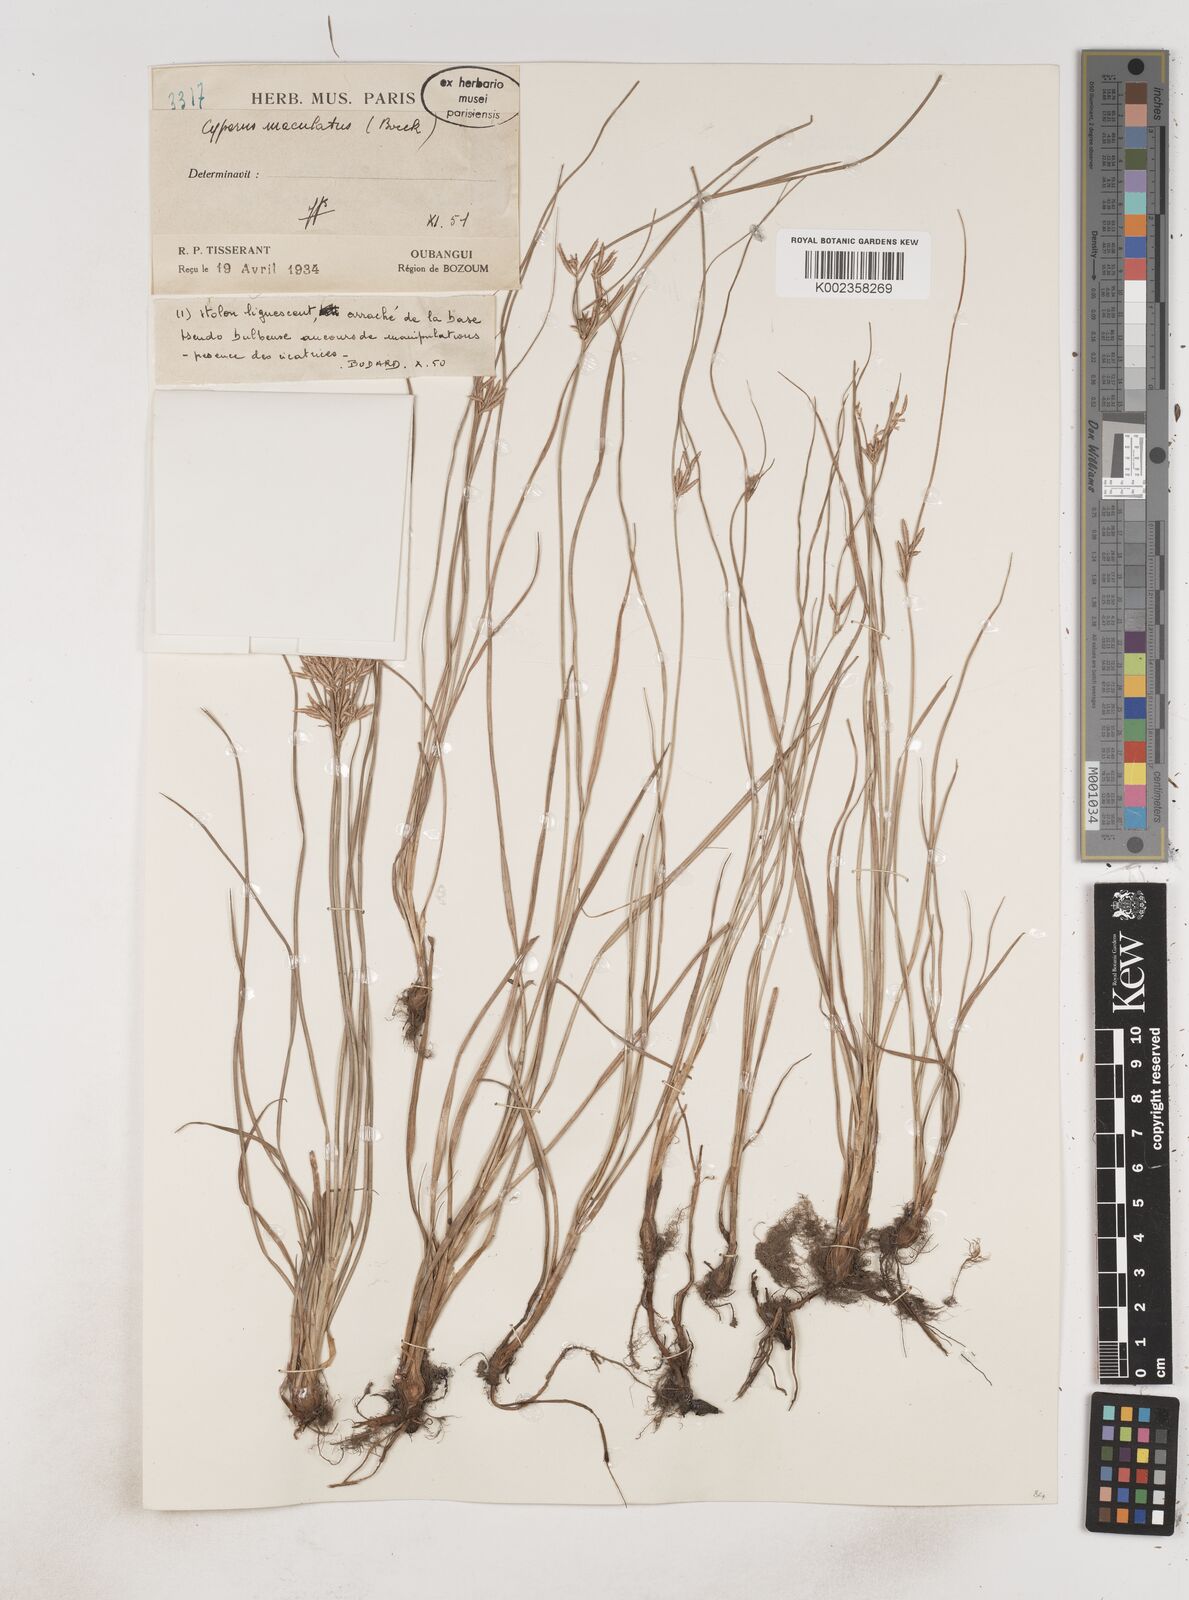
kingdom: Plantae
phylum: Tracheophyta
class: Liliopsida
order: Poales
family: Cyperaceae
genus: Cyperus
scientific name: Cyperus maculatus
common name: Maculated sedge
